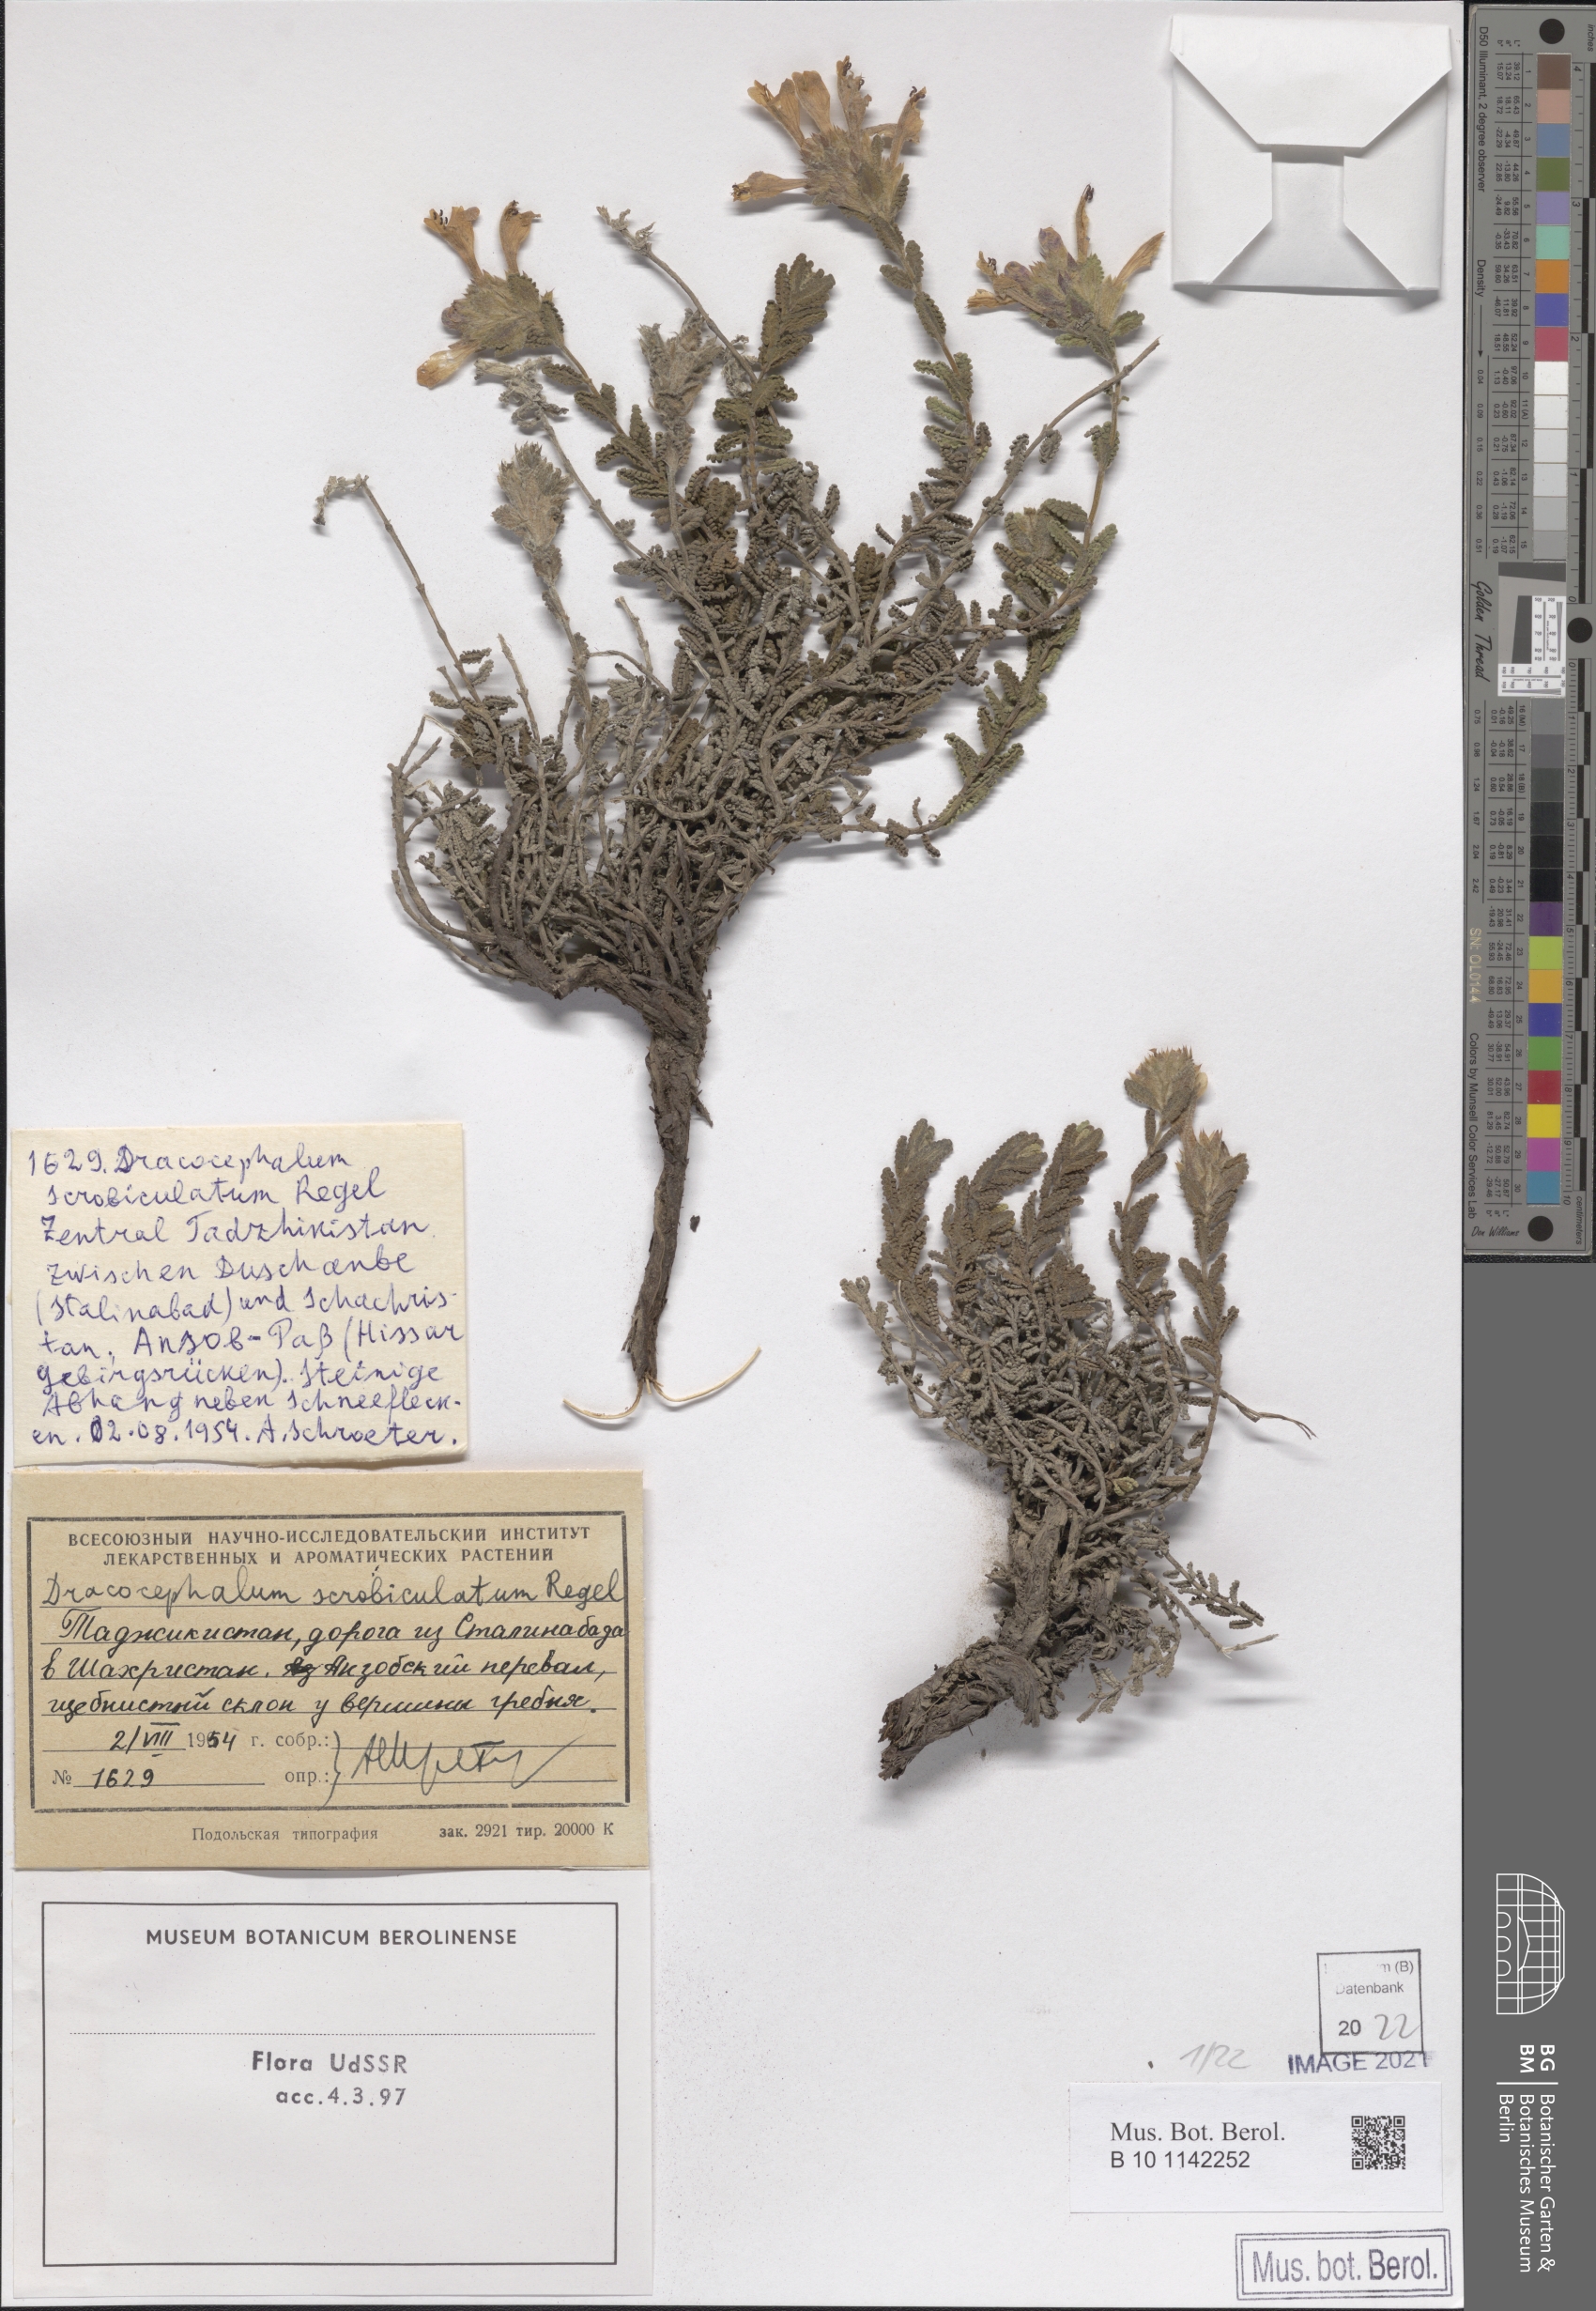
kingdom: Plantae
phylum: Tracheophyta
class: Magnoliopsida
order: Lamiales
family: Lamiaceae
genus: Dracocephalum
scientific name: Dracocephalum scrobiculatum
